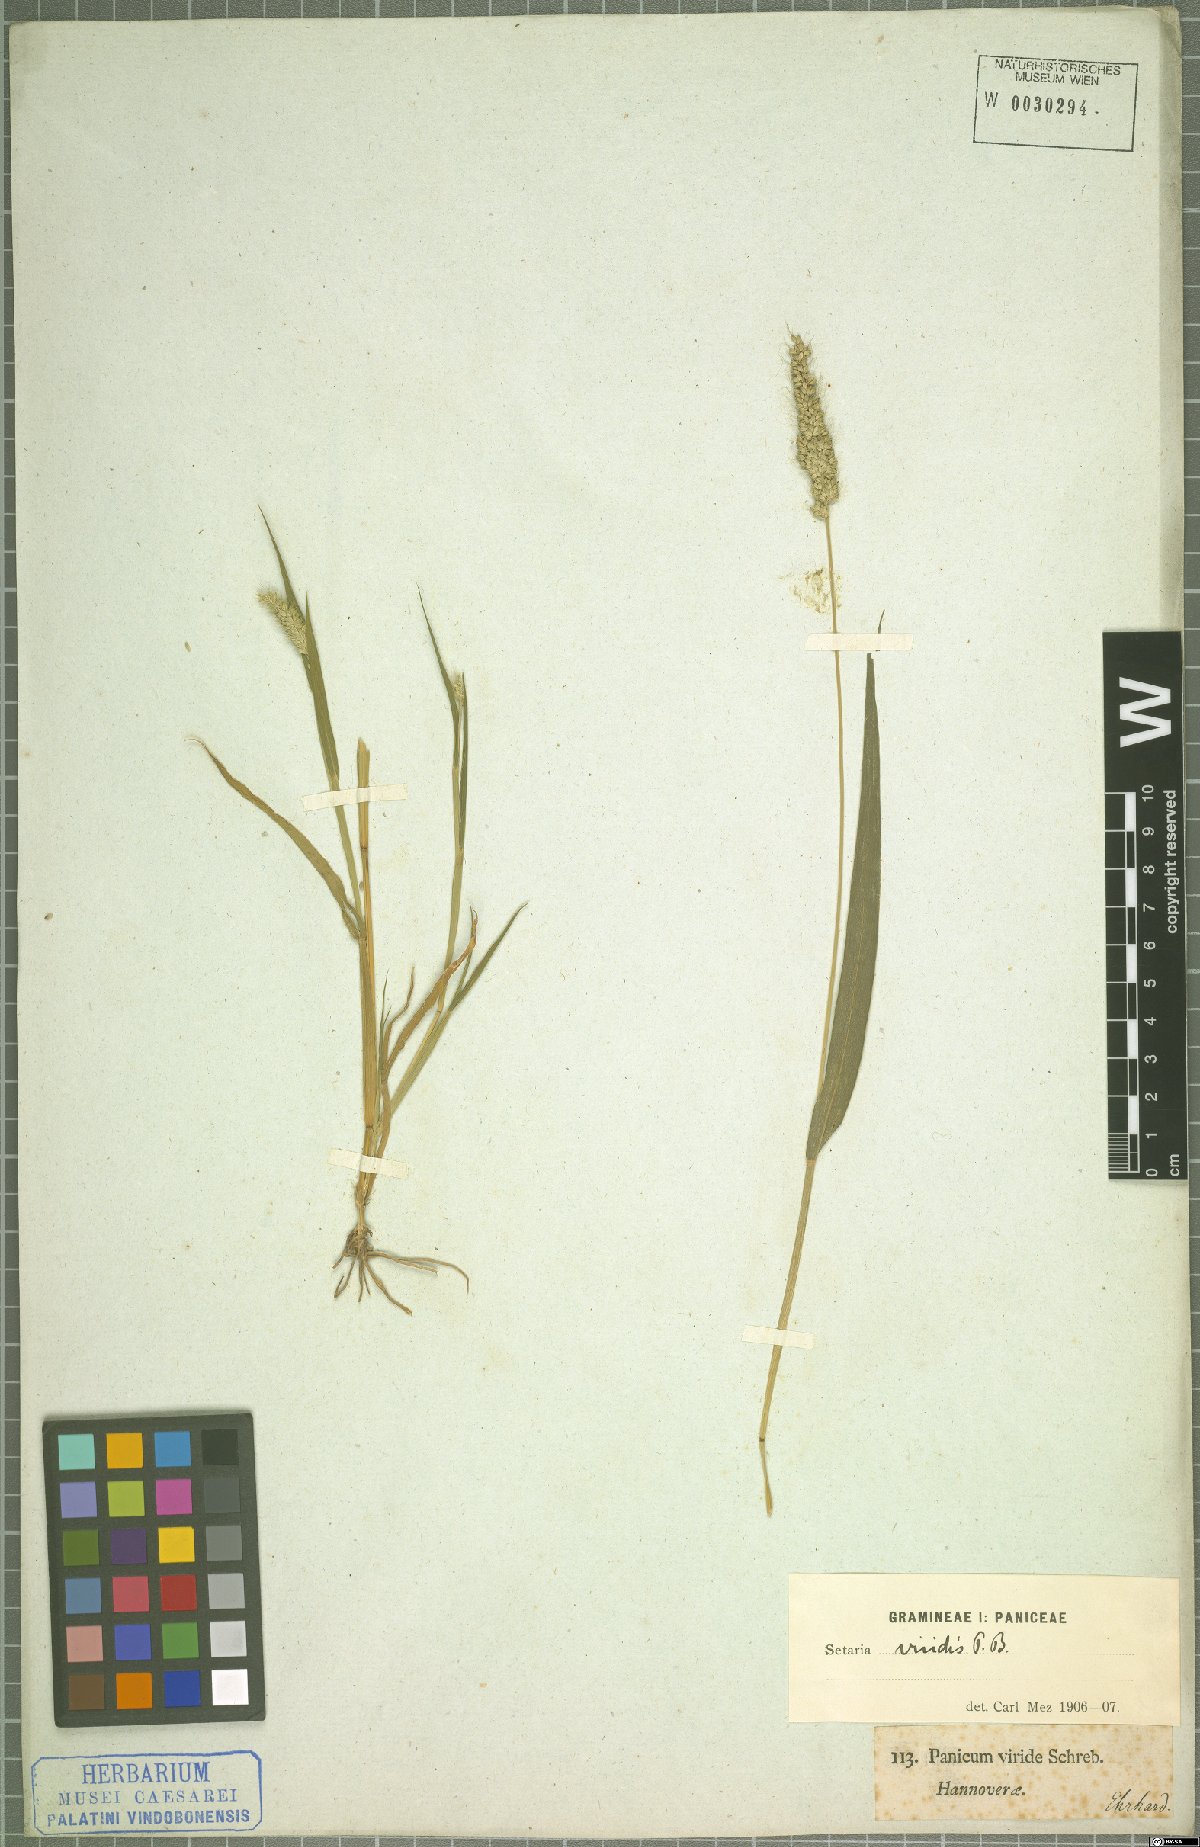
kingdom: Plantae
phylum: Tracheophyta
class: Liliopsida
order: Poales
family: Poaceae
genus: Setaria
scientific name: Setaria viridis
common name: Green bristlegrass
